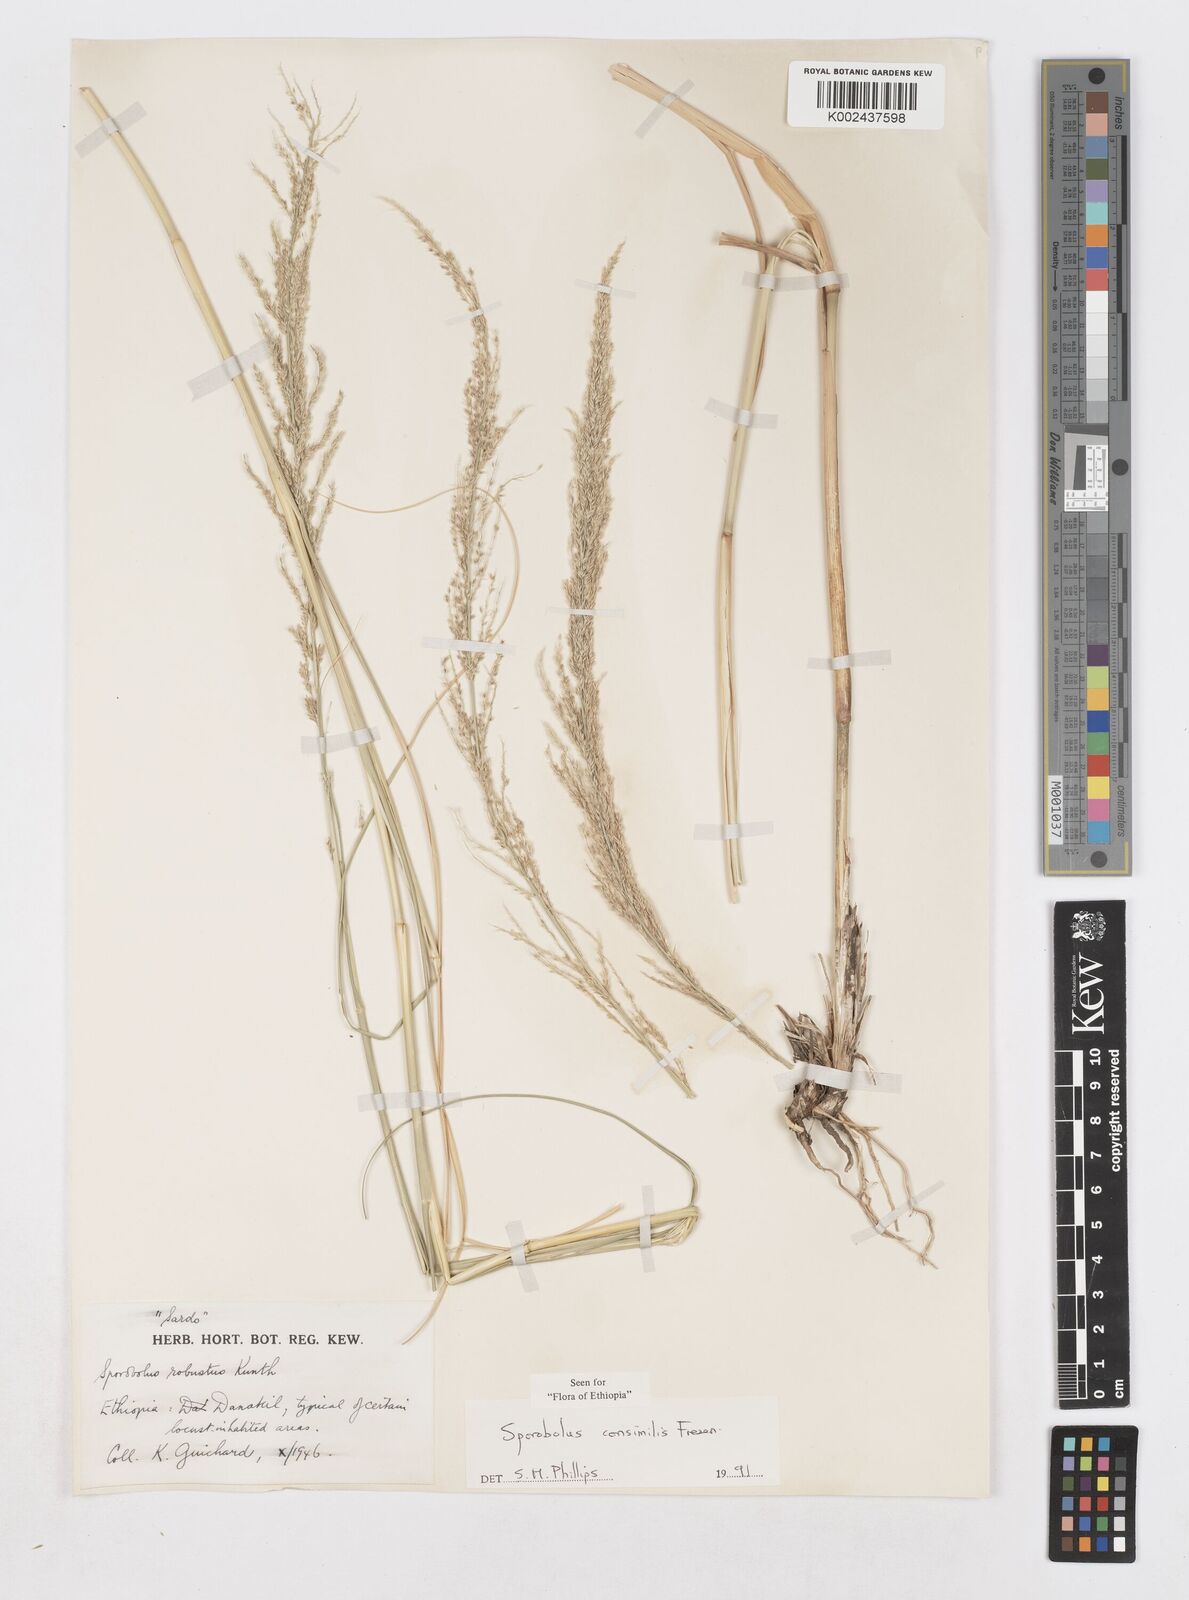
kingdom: Plantae
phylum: Tracheophyta
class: Liliopsida
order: Poales
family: Poaceae
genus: Sporobolus
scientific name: Sporobolus consimilis
